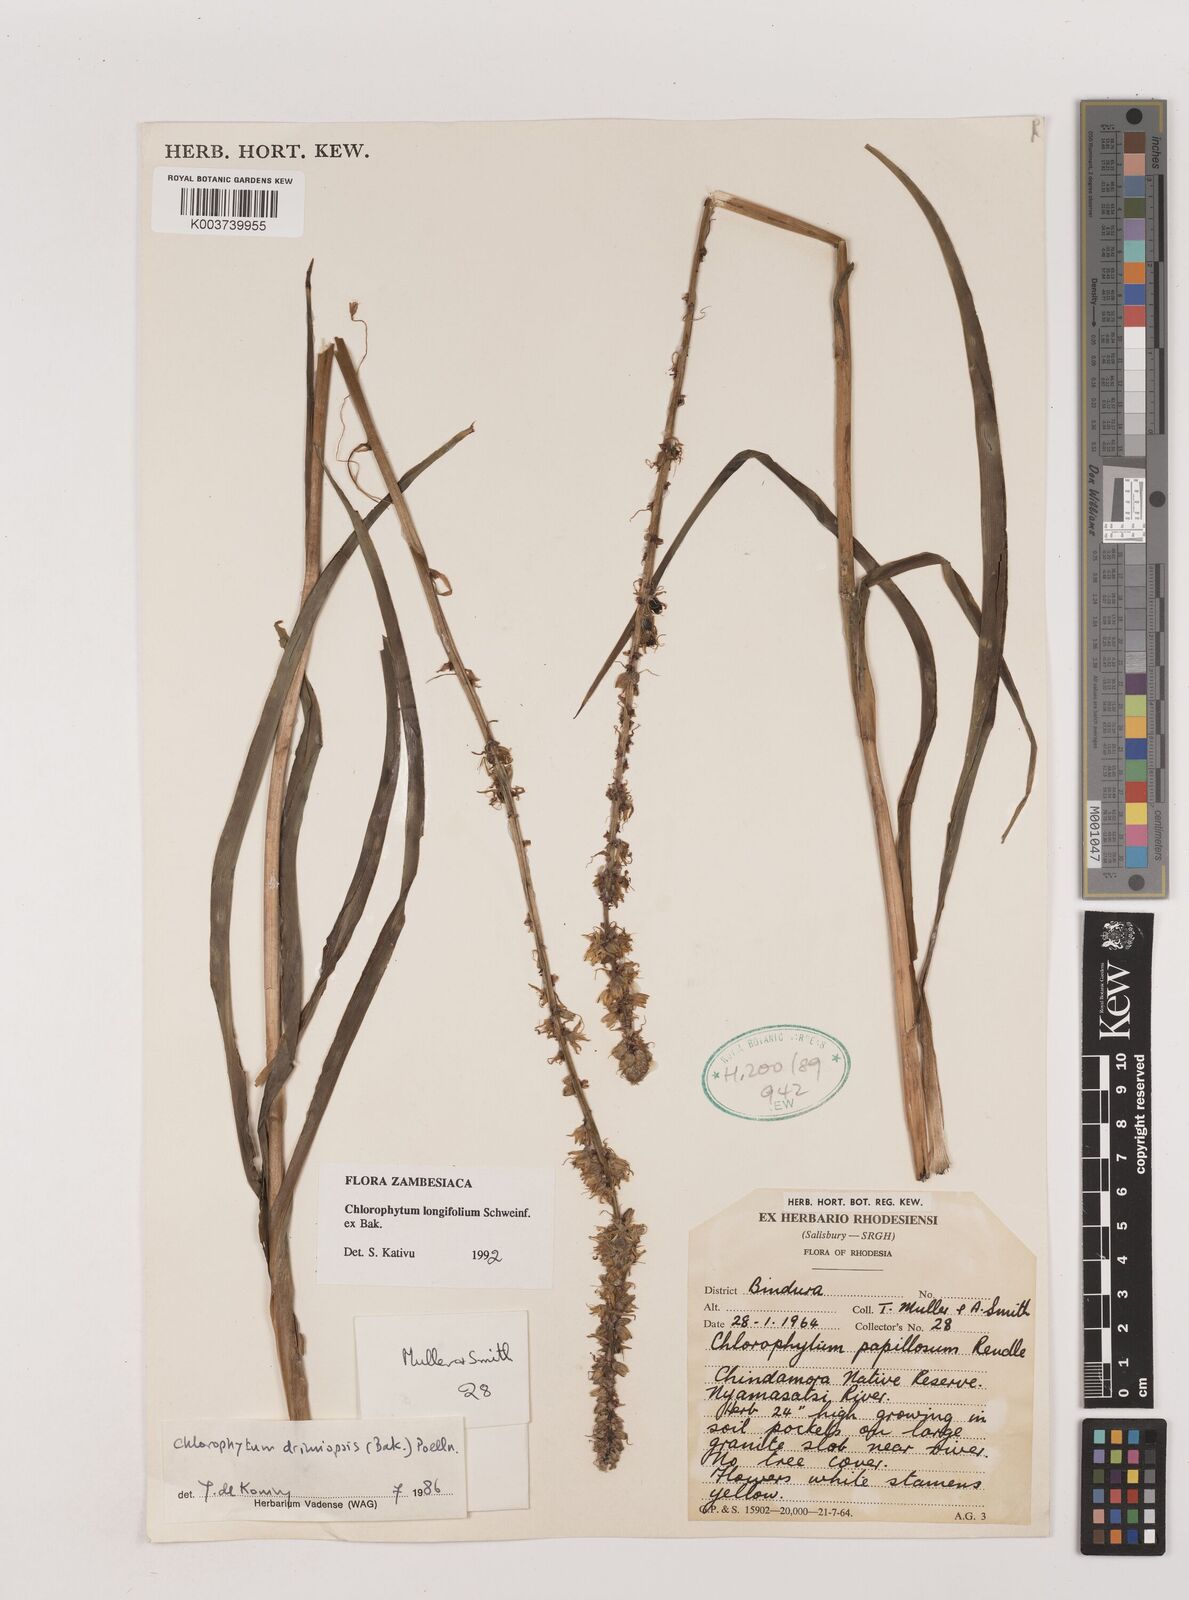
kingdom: Plantae
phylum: Tracheophyta
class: Liliopsida
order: Asparagales
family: Asparagaceae
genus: Chlorophytum
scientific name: Chlorophytum longifolium
